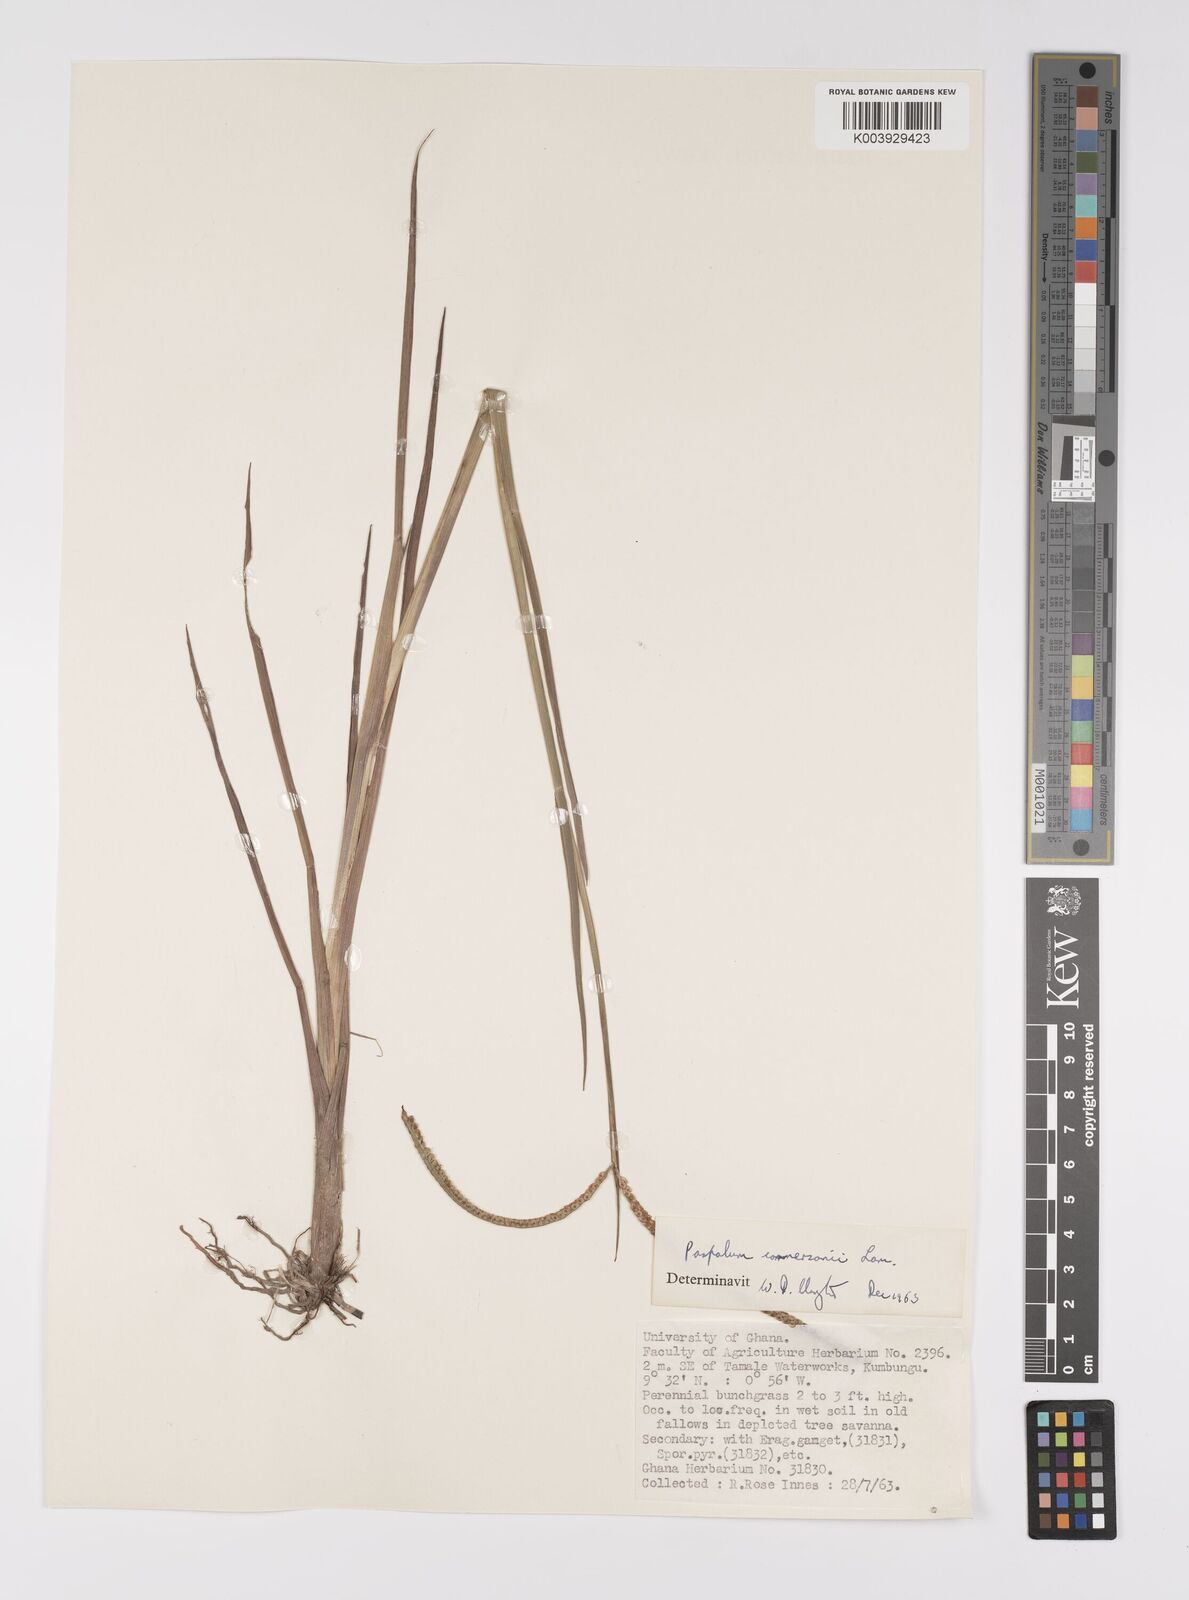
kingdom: Plantae
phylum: Tracheophyta
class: Liliopsida
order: Poales
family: Poaceae
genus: Paspalum
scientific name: Paspalum scrobiculatum
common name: Kodo millet
